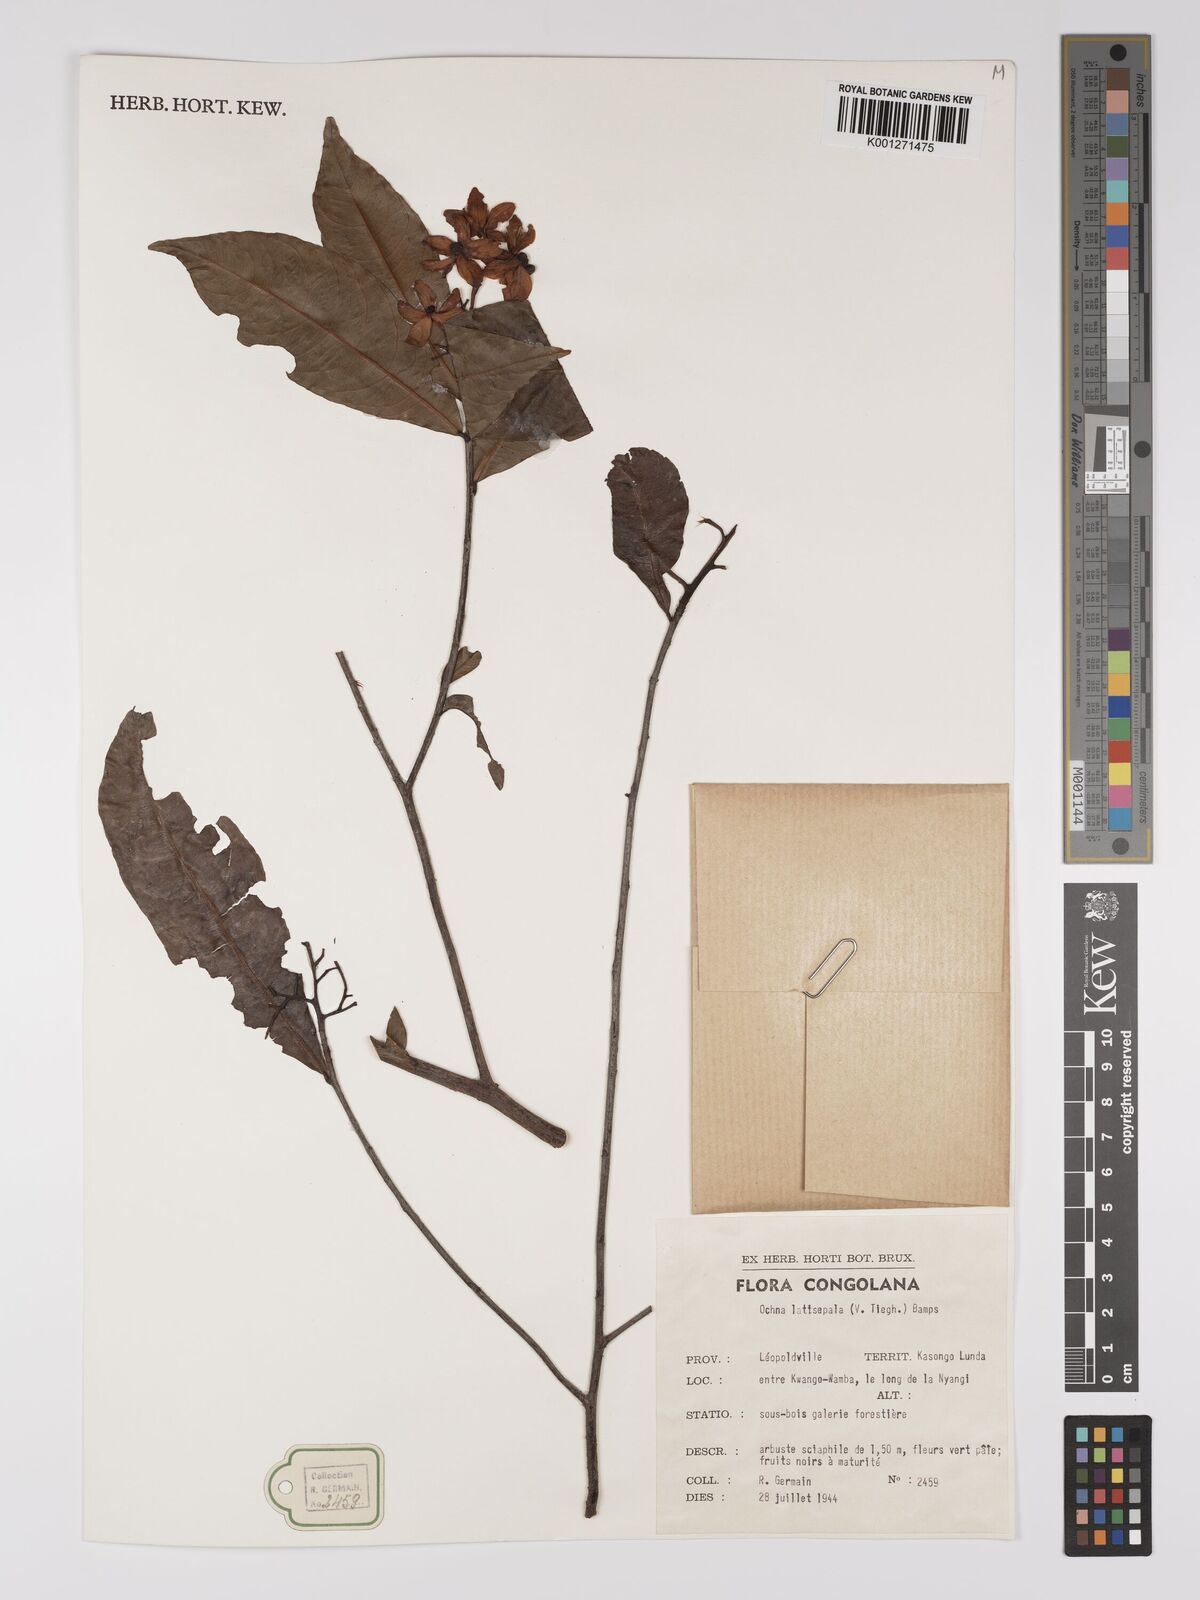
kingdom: Plantae
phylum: Tracheophyta
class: Magnoliopsida
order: Malpighiales
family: Ochnaceae
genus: Ochna
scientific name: Ochna latisepala
